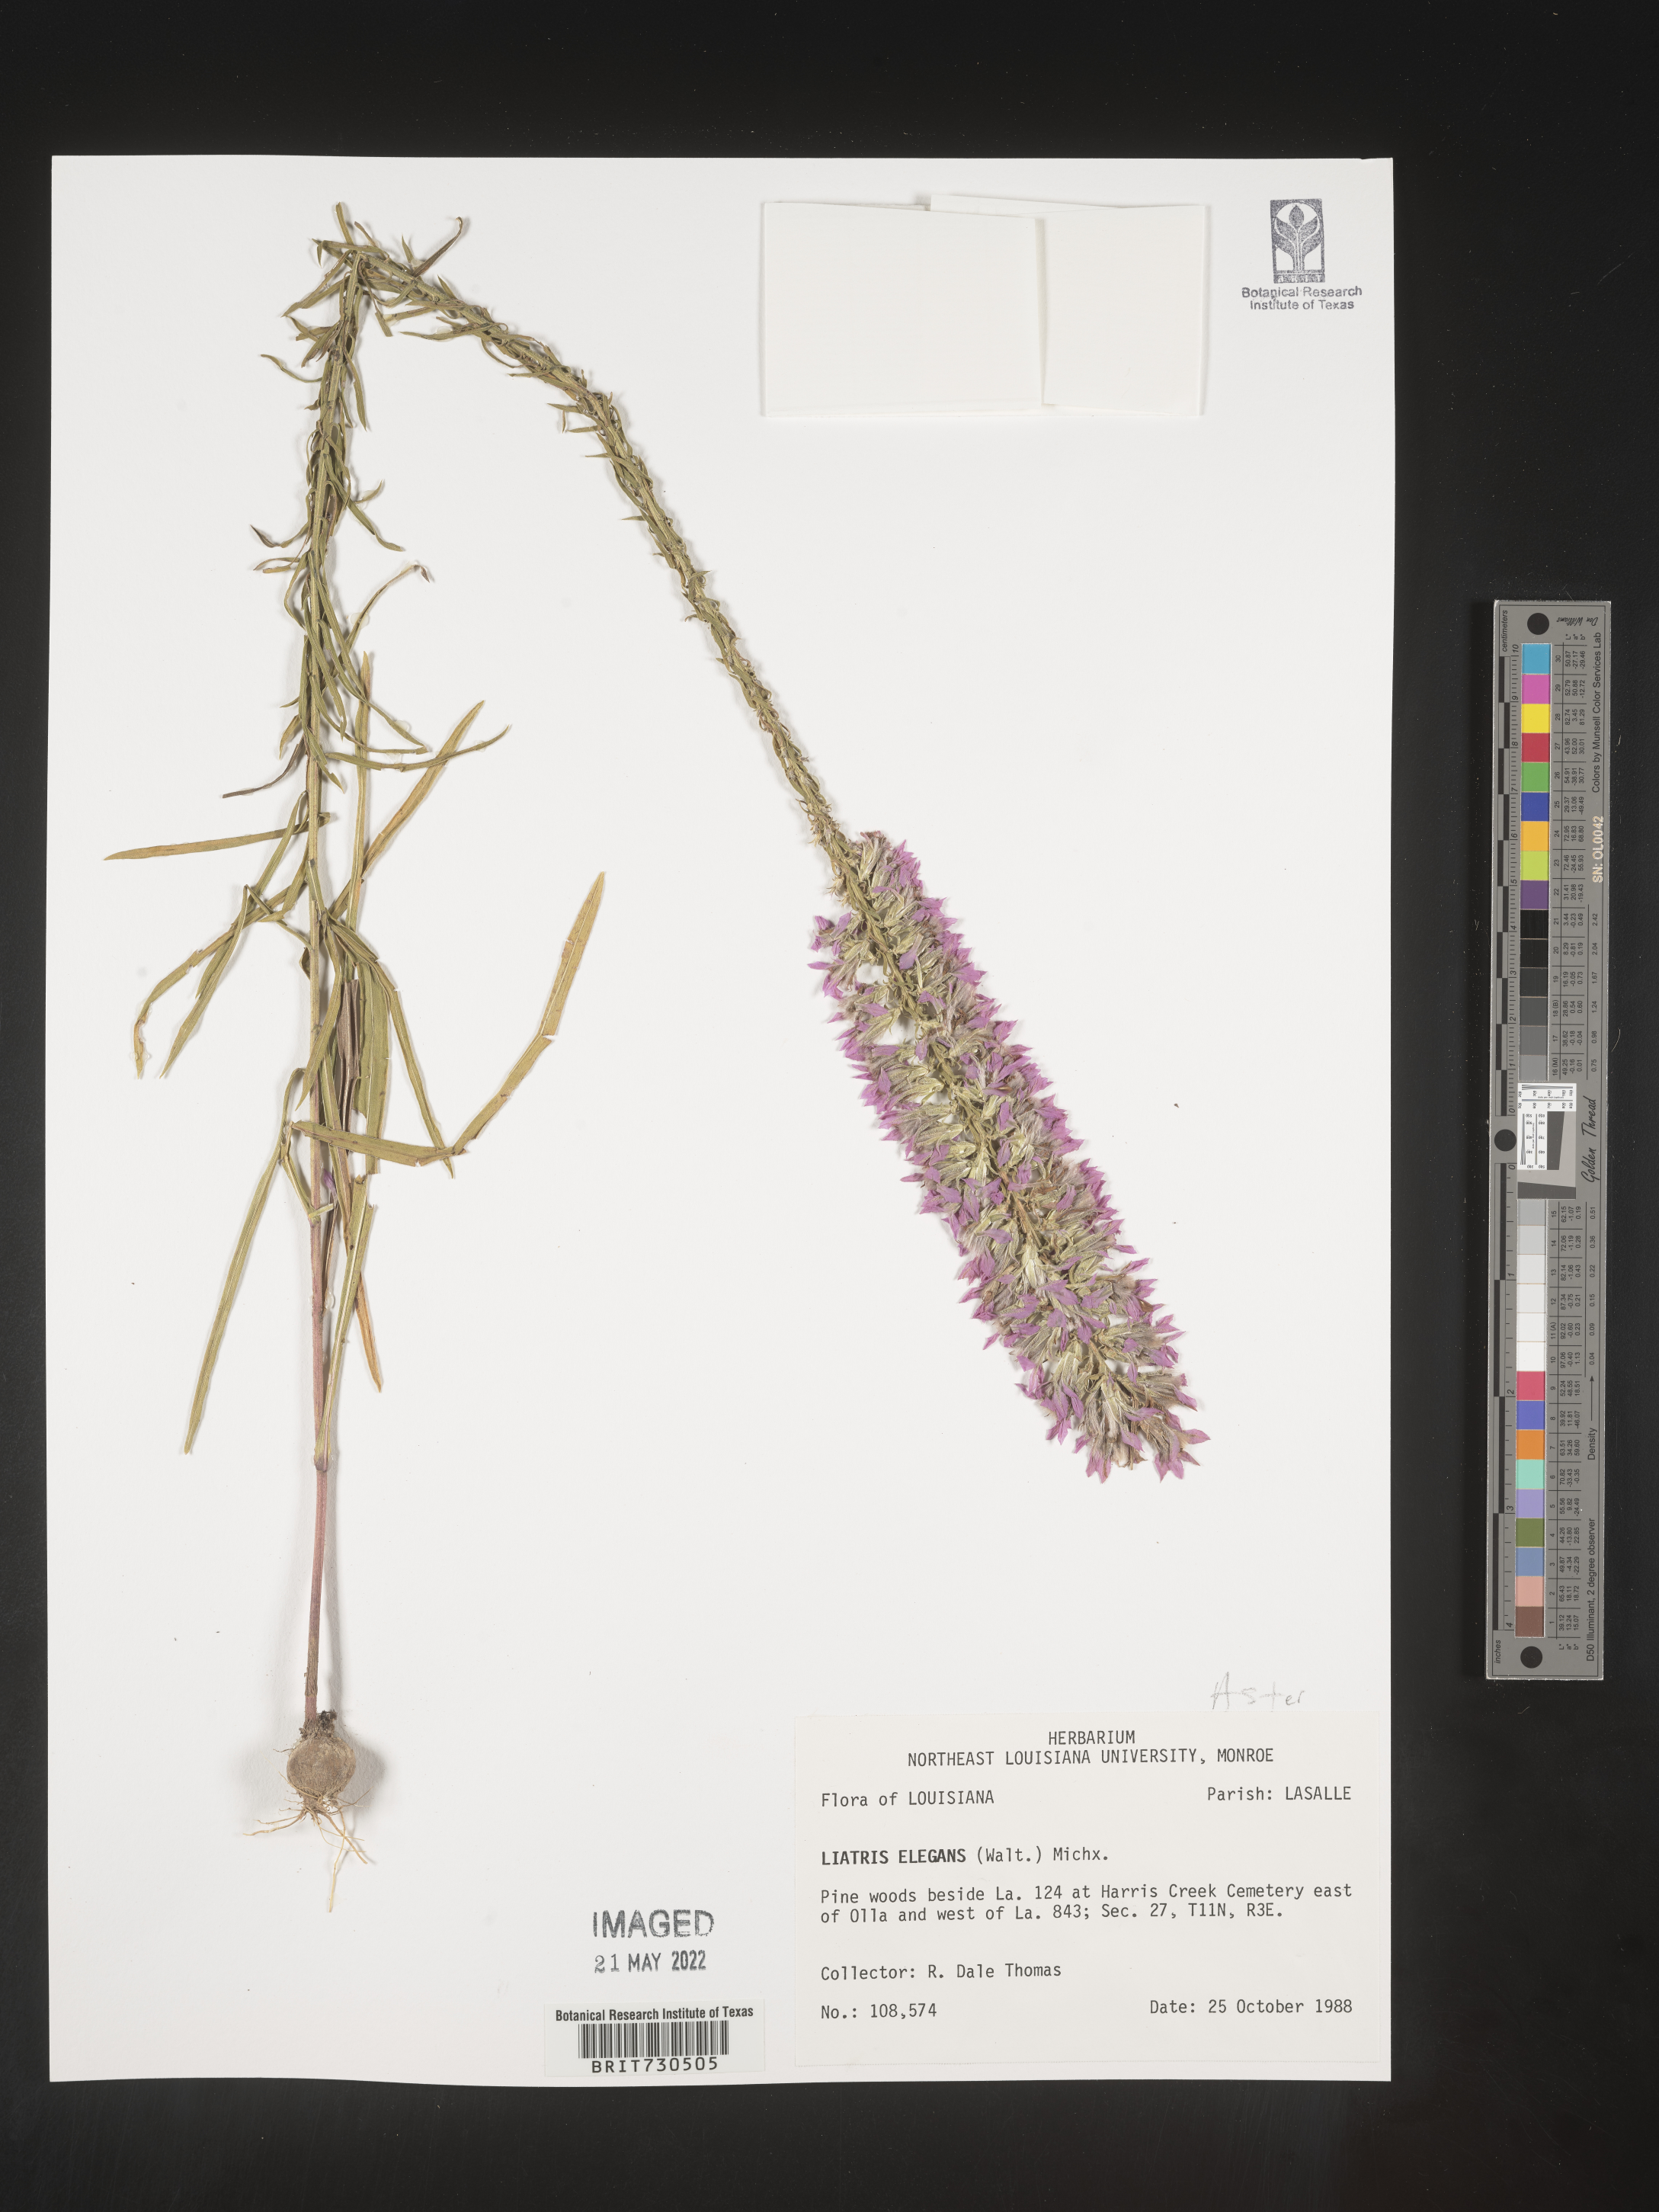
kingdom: Plantae
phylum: Tracheophyta
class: Magnoliopsida
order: Asterales
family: Asteraceae
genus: Liatris
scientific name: Liatris elegans
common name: Pinkscale gayfeather
